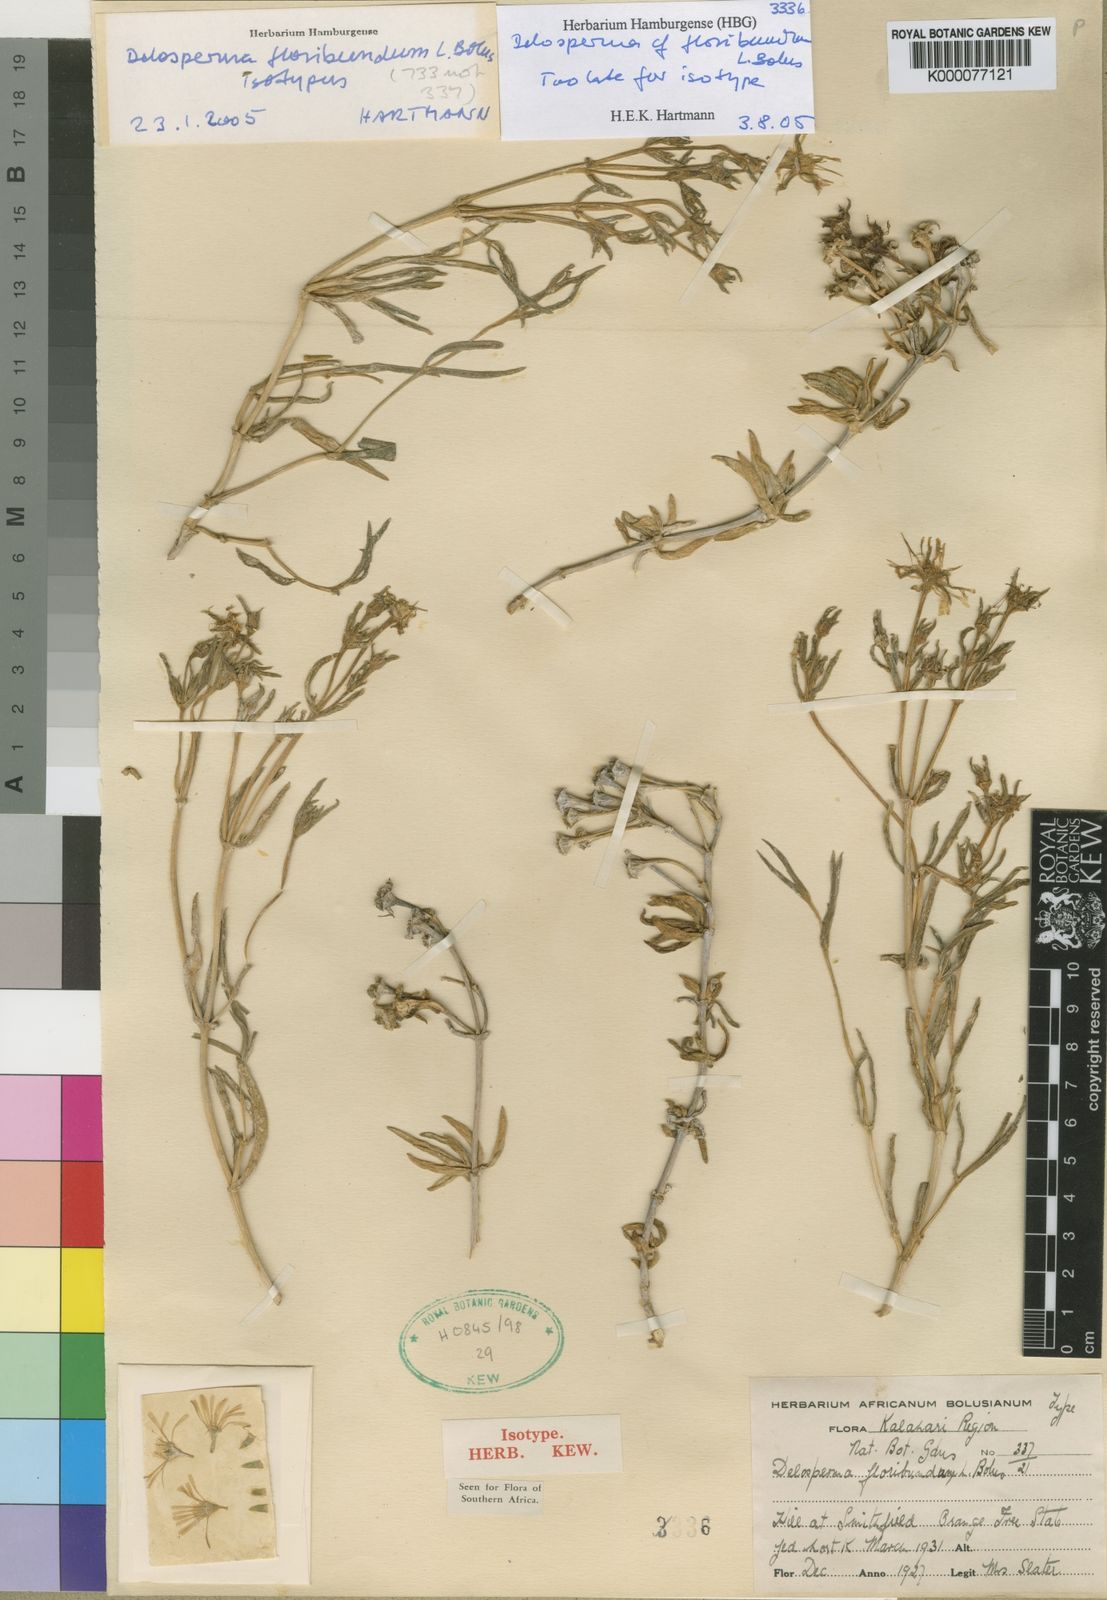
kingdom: Plantae
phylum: Tracheophyta
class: Magnoliopsida
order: Caryophyllales
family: Aizoaceae
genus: Delosperma
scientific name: Delosperma floribundum
